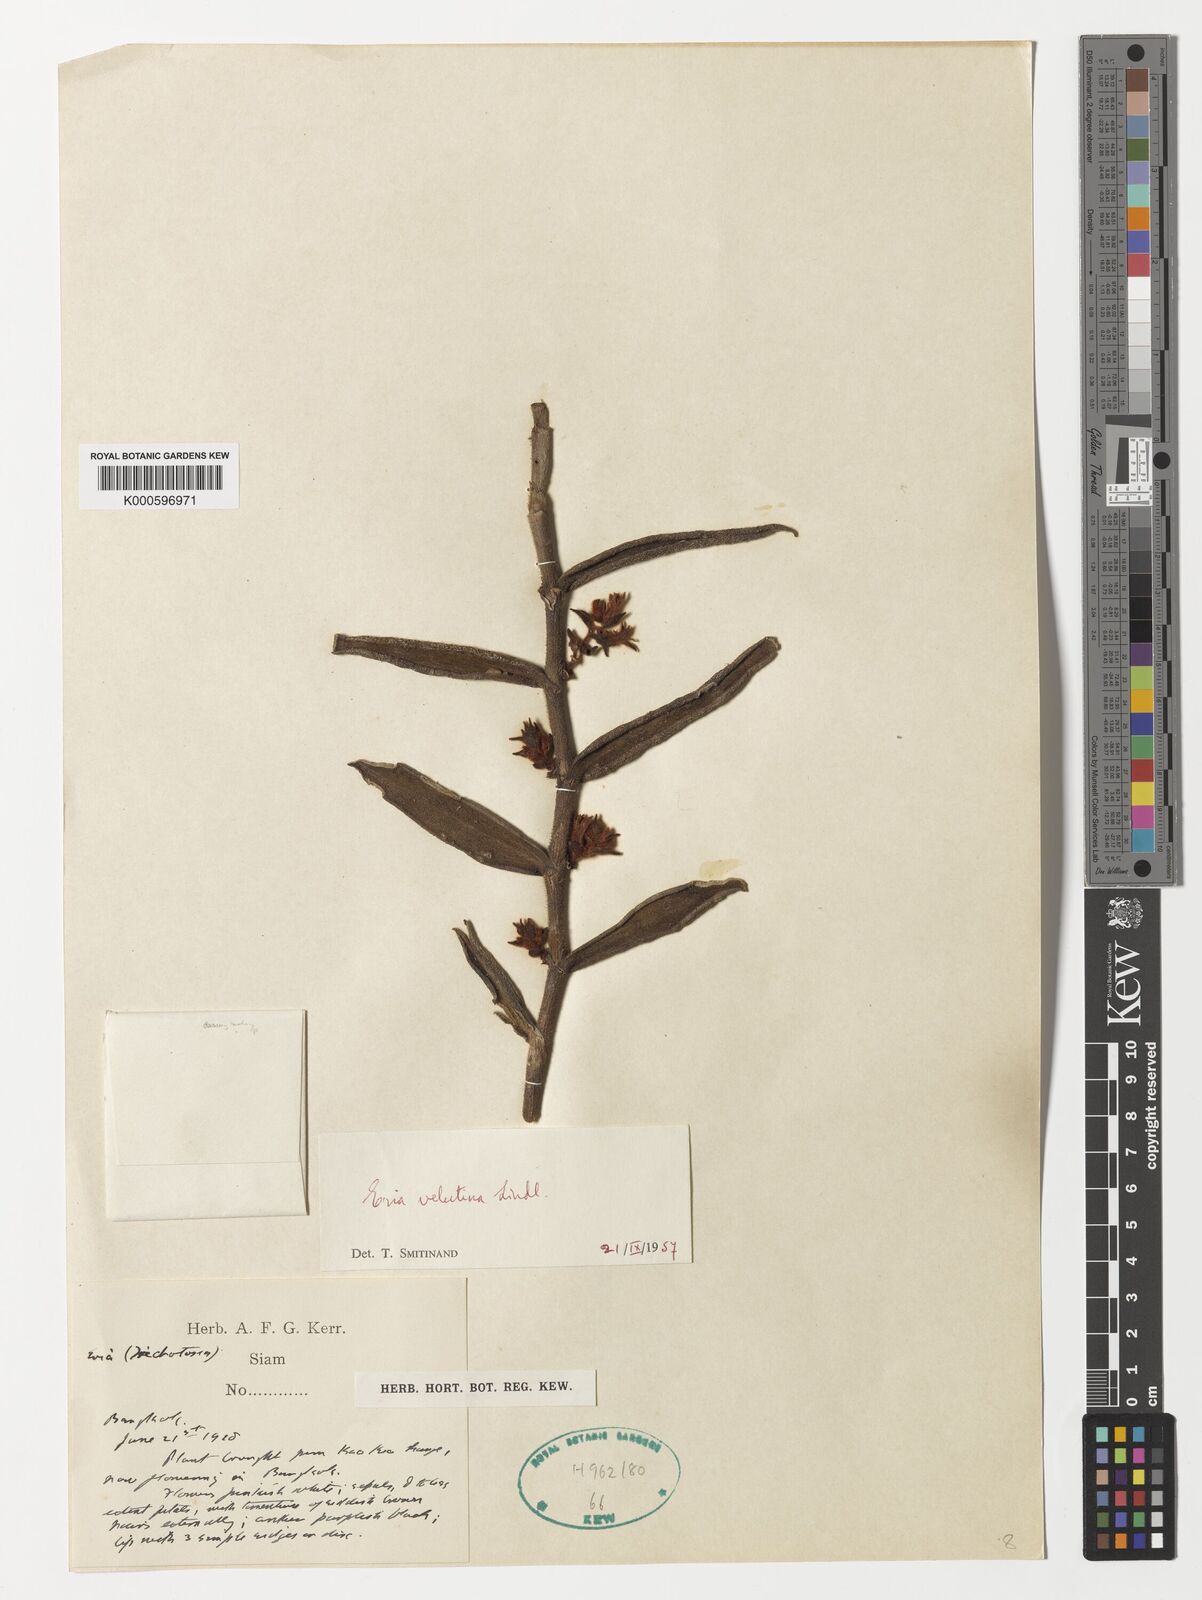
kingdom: Plantae
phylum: Tracheophyta
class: Liliopsida
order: Asparagales
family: Orchidaceae
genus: Trichotosia
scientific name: Trichotosia velutina
